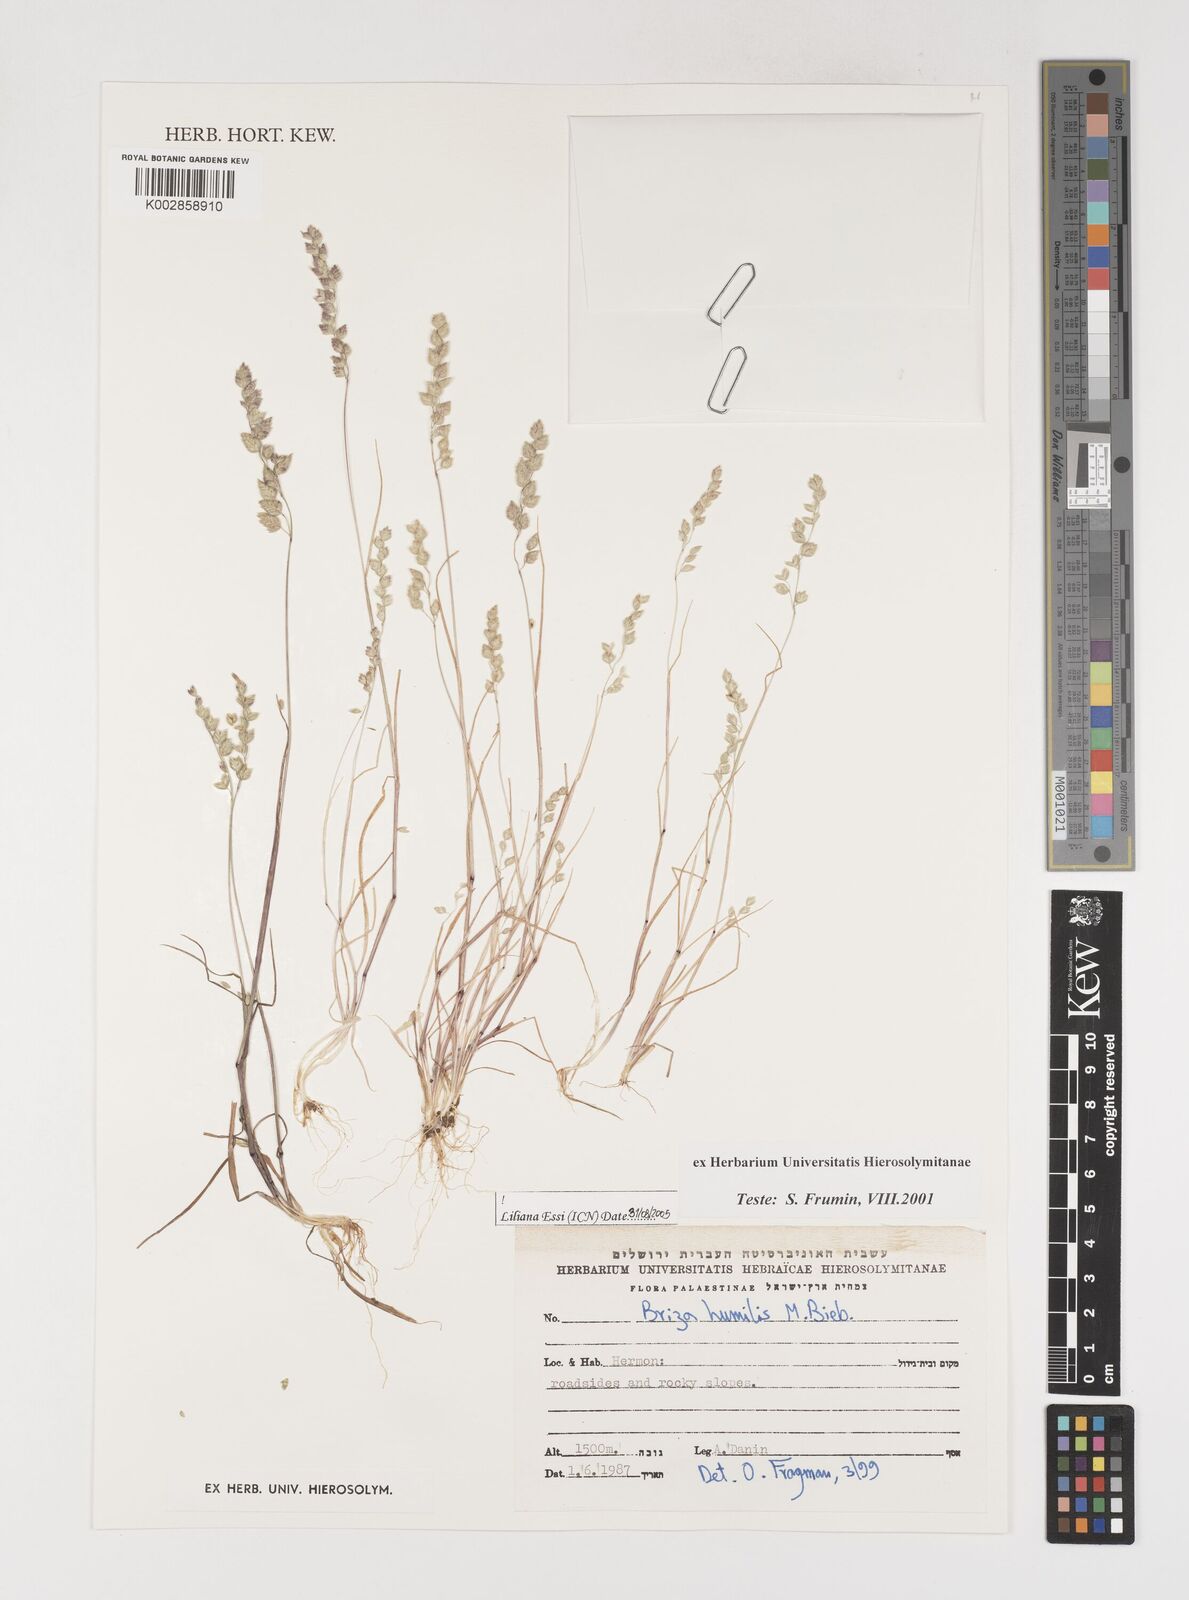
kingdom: Plantae
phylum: Tracheophyta
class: Liliopsida
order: Poales
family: Poaceae
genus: Briza
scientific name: Briza humilis
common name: Spiked quaking grass
